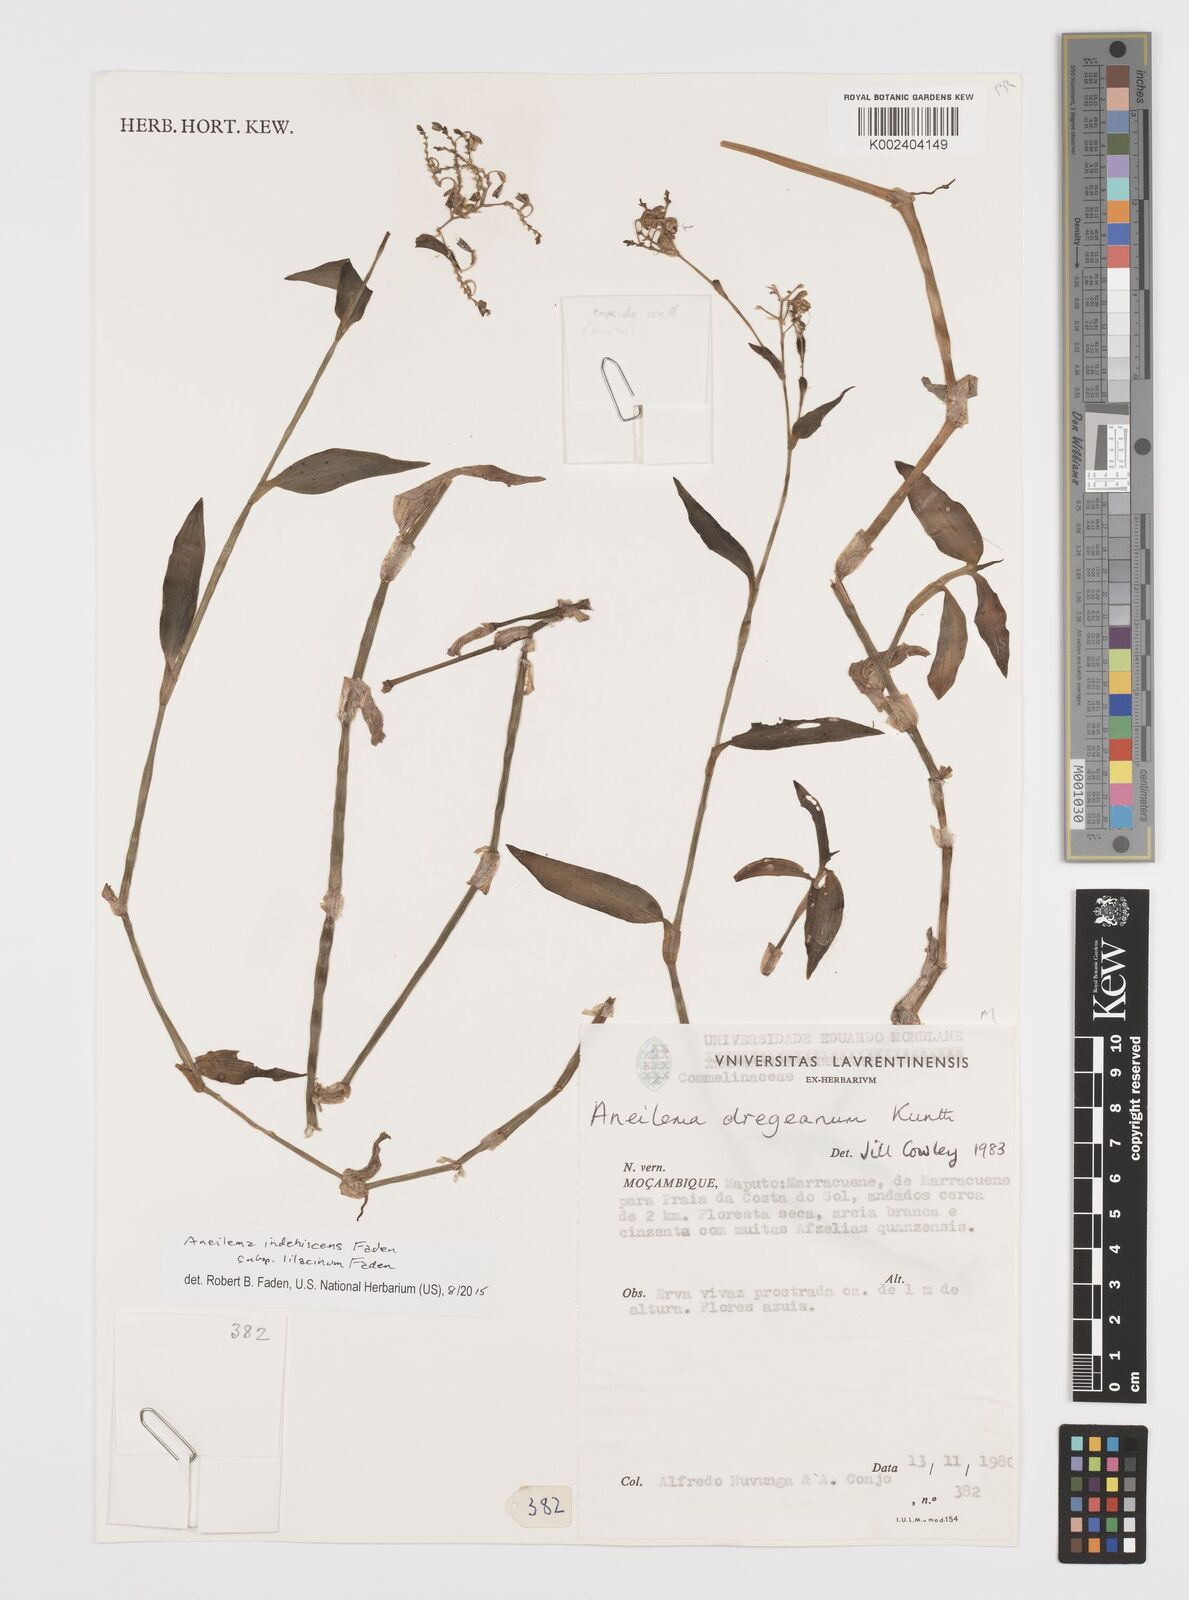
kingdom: Plantae
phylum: Tracheophyta
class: Liliopsida
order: Commelinales
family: Commelinaceae
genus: Aneilema
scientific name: Aneilema indehiscens
